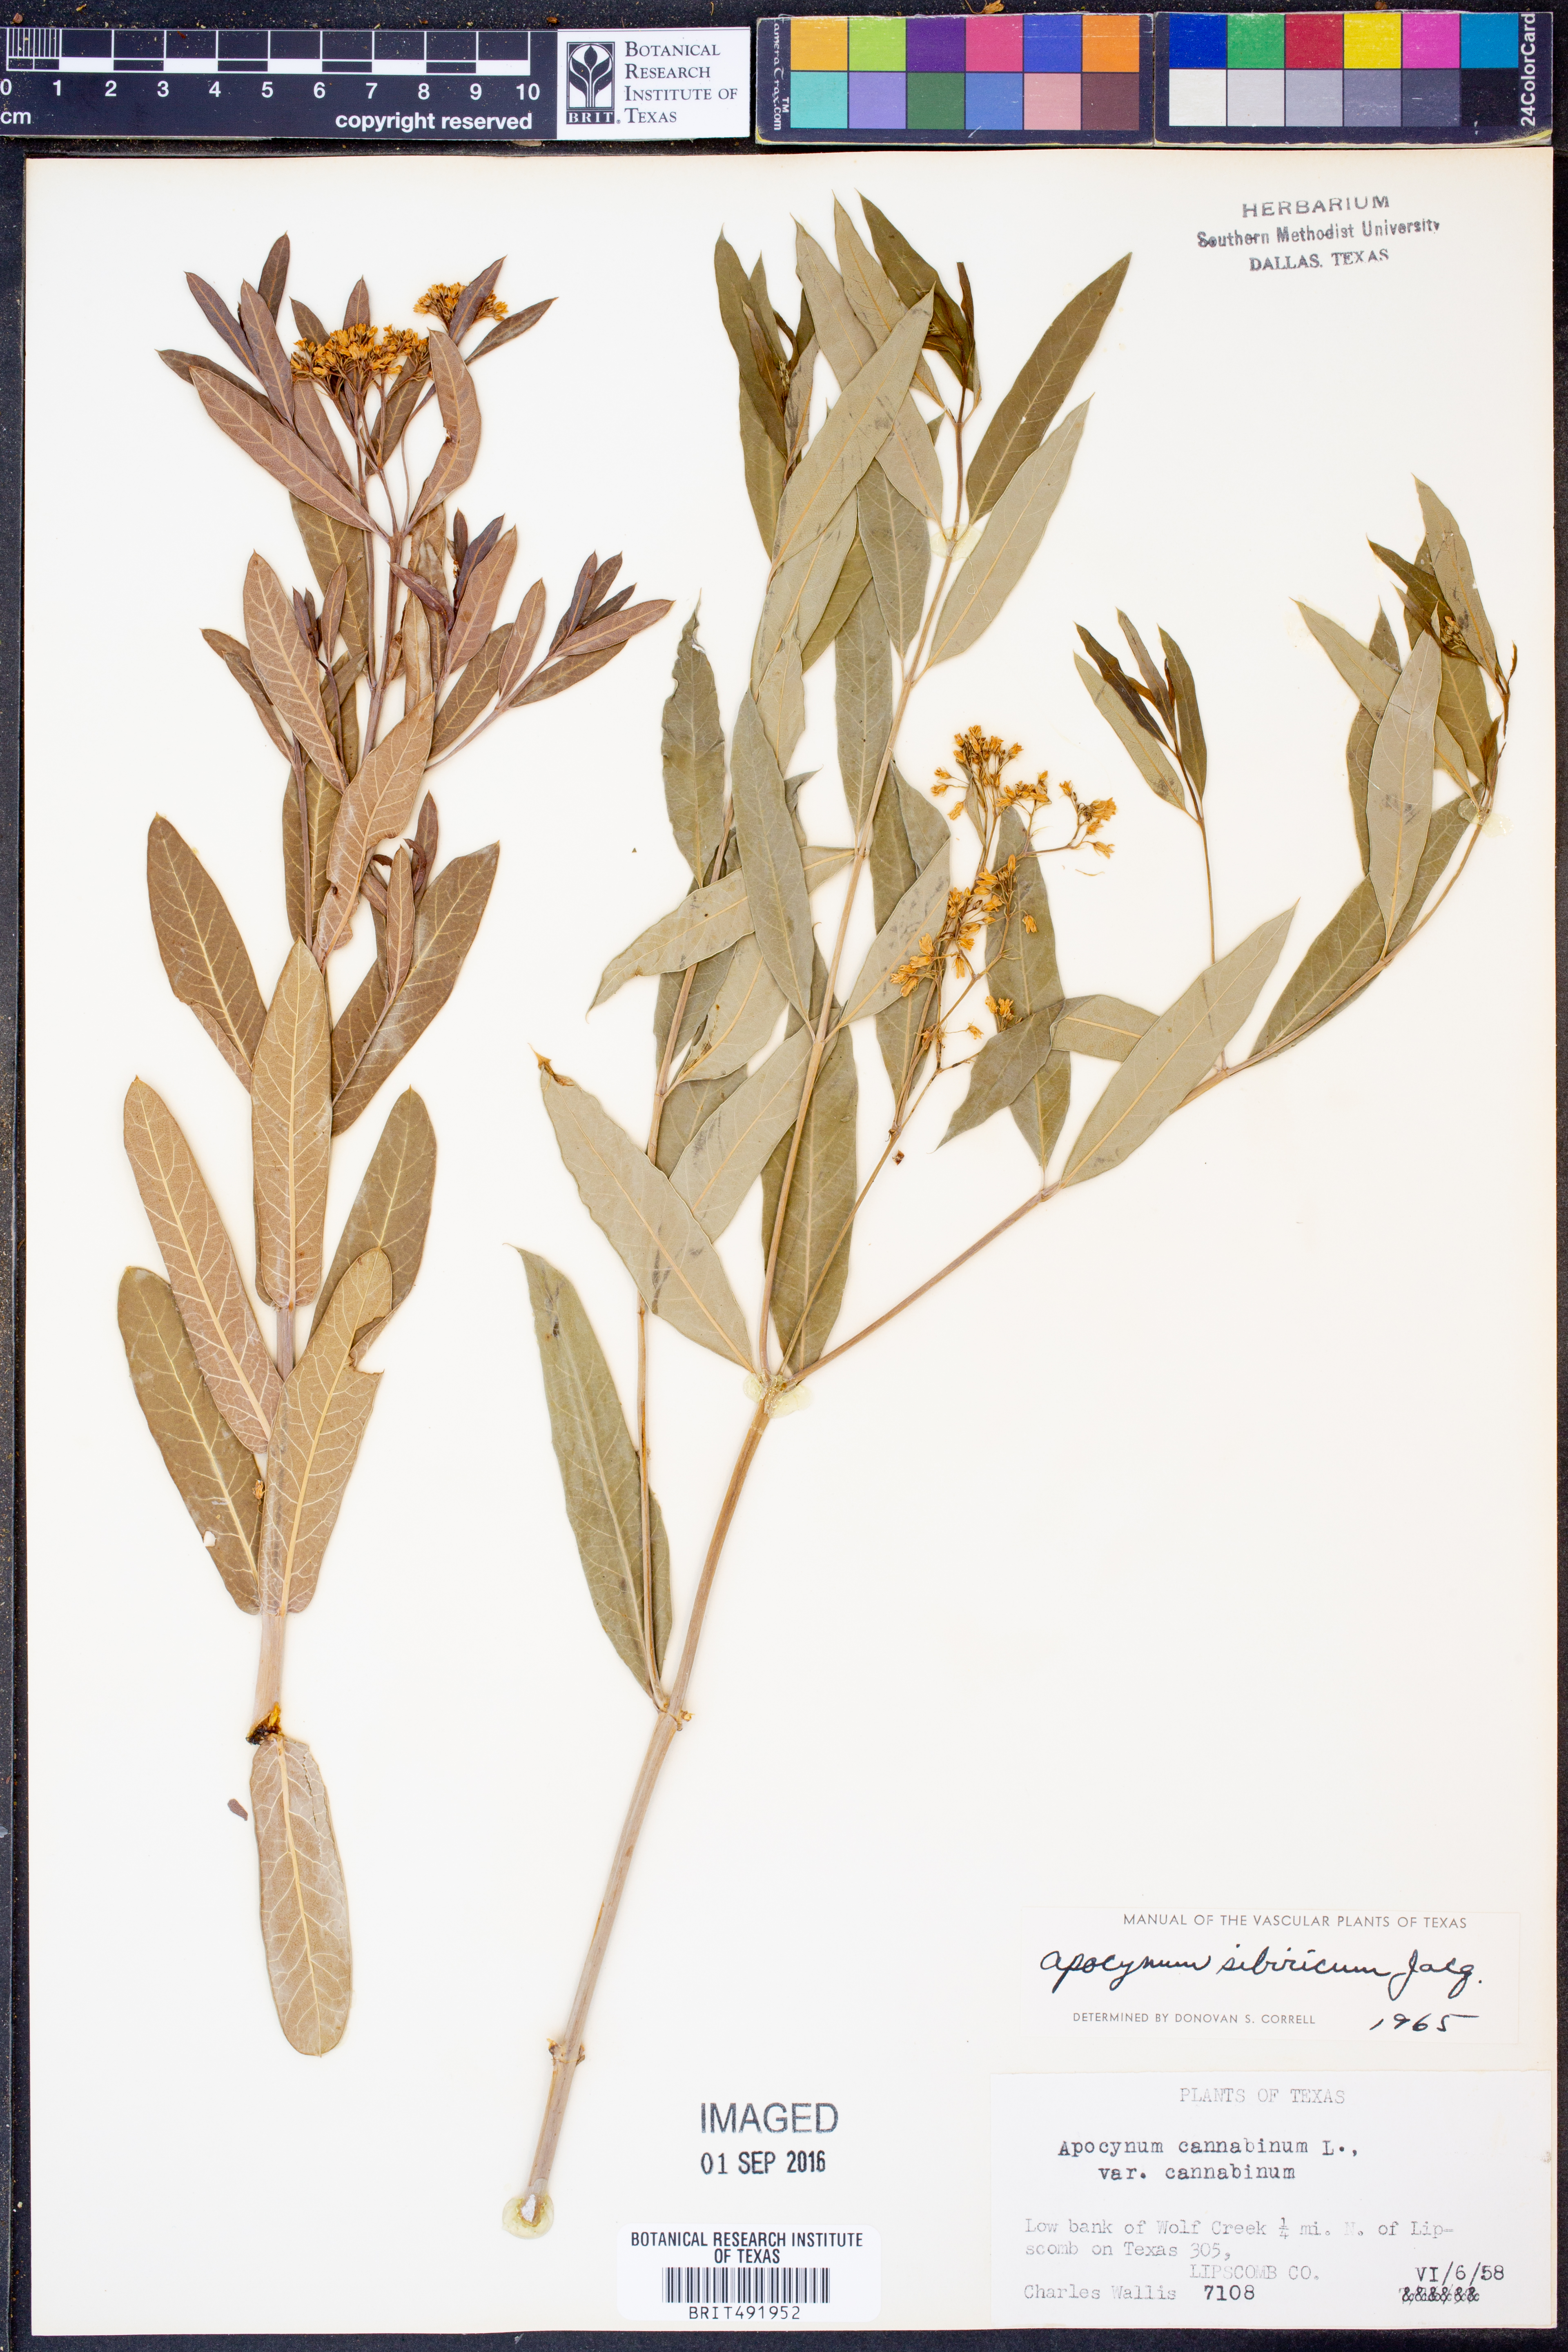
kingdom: Plantae
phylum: Tracheophyta
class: Magnoliopsida
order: Gentianales
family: Apocynaceae
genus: Apocynum
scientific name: Apocynum cannabinum
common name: Hemp dogbane
